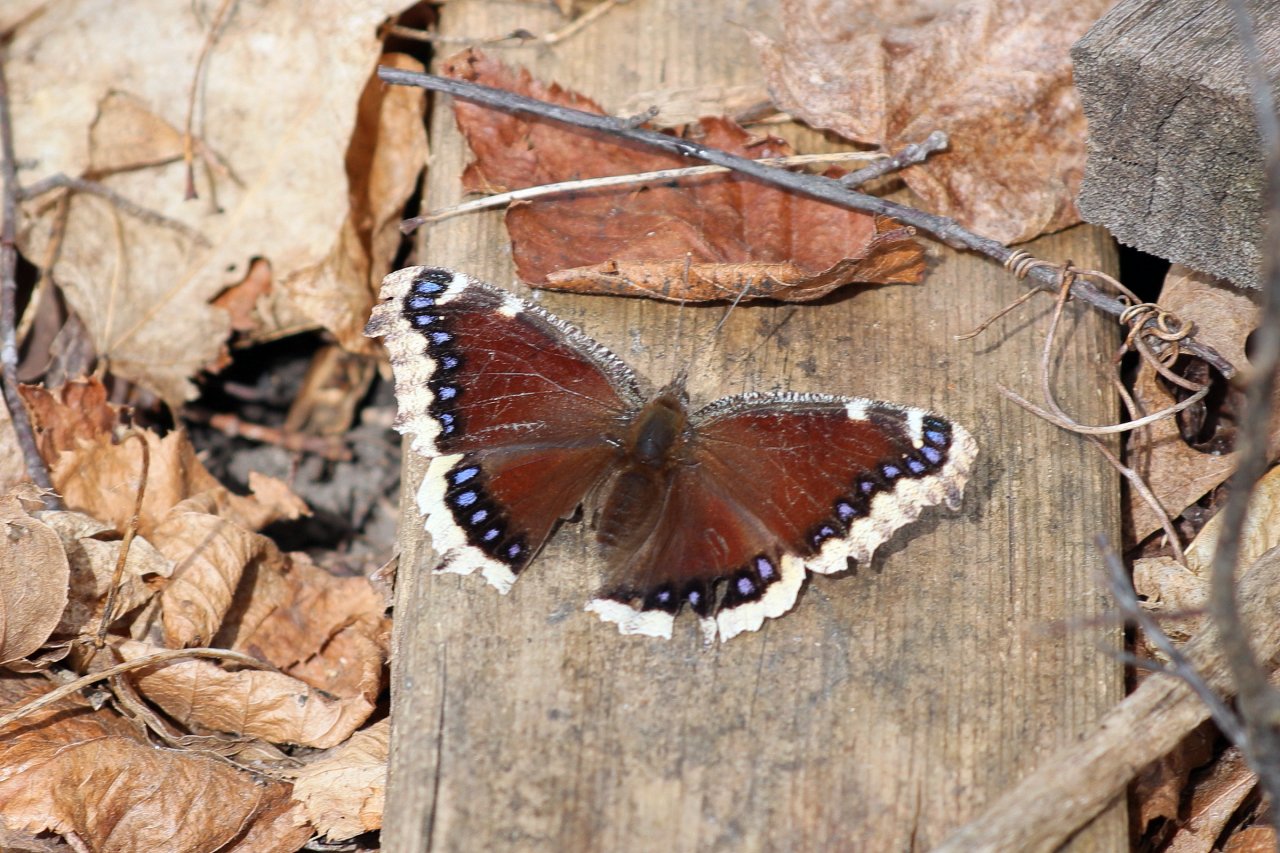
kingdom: Animalia
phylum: Arthropoda
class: Insecta
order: Lepidoptera
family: Nymphalidae
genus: Nymphalis
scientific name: Nymphalis antiopa
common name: Mourning Cloak
